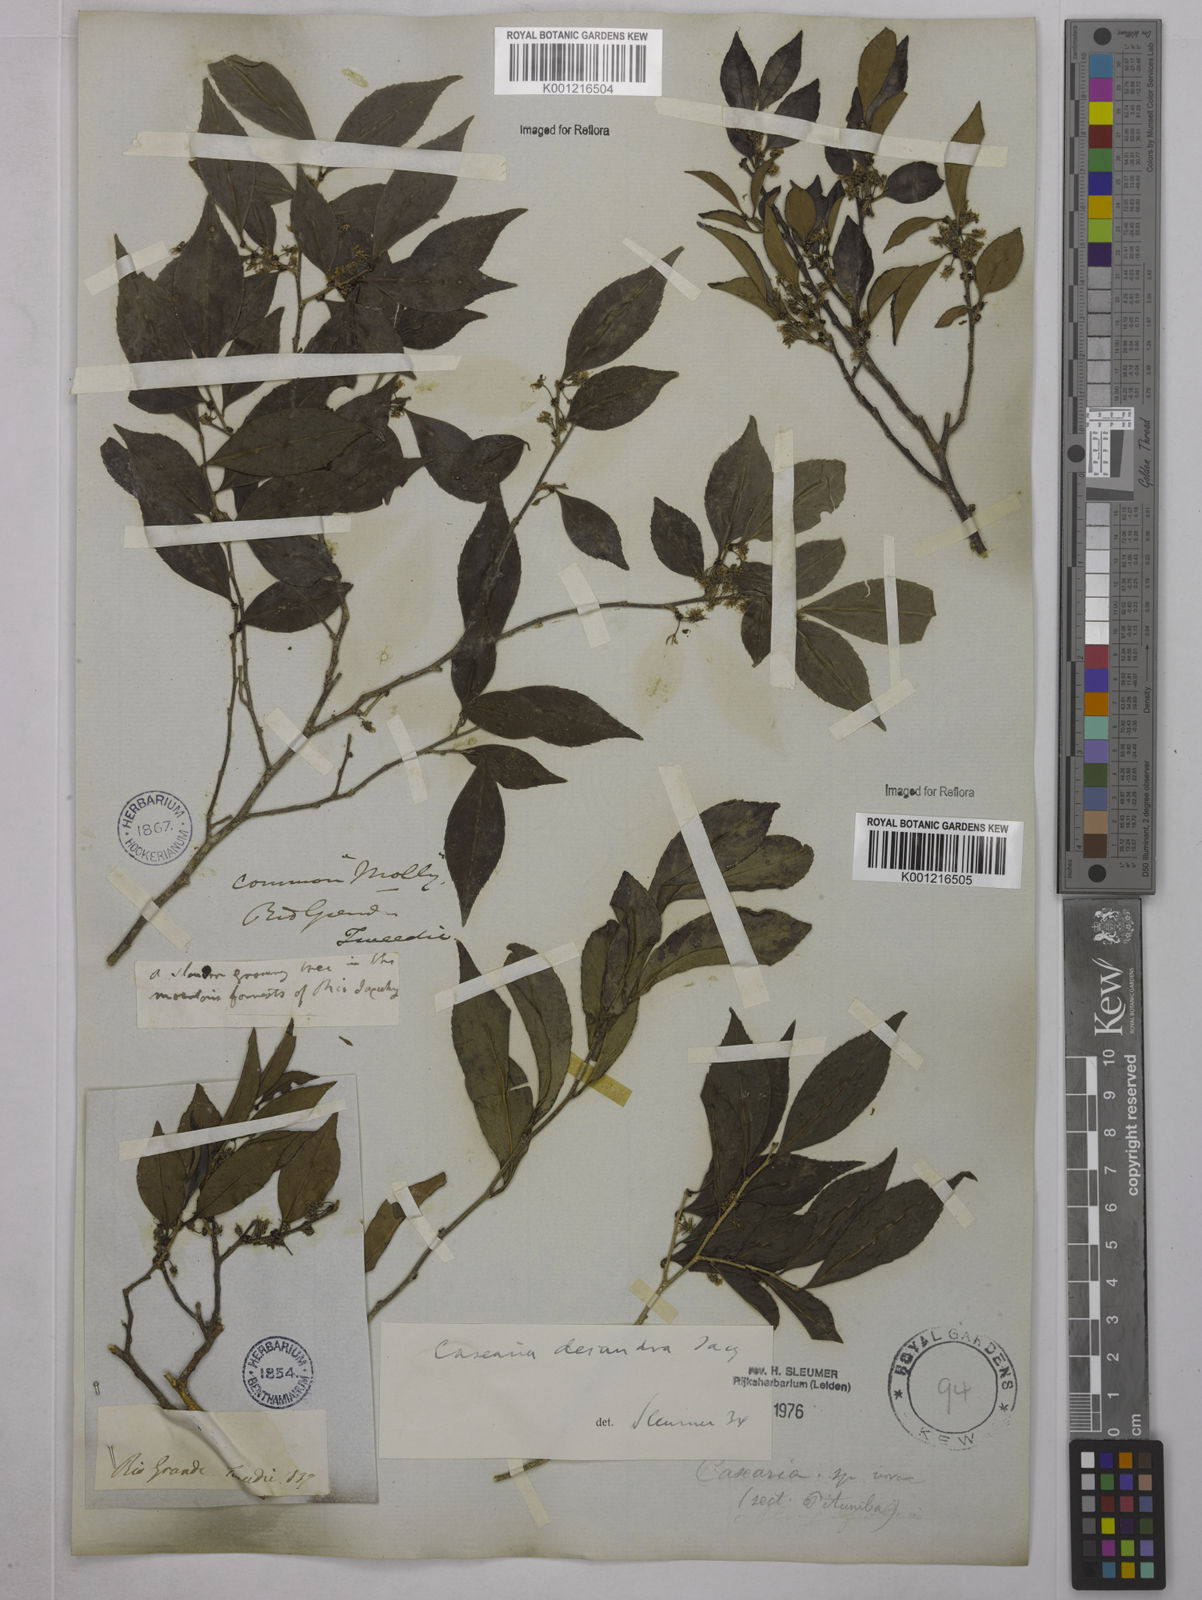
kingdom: Plantae
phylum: Tracheophyta
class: Magnoliopsida
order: Malpighiales
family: Salicaceae
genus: Casearia
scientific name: Casearia decandra
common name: Crack open
